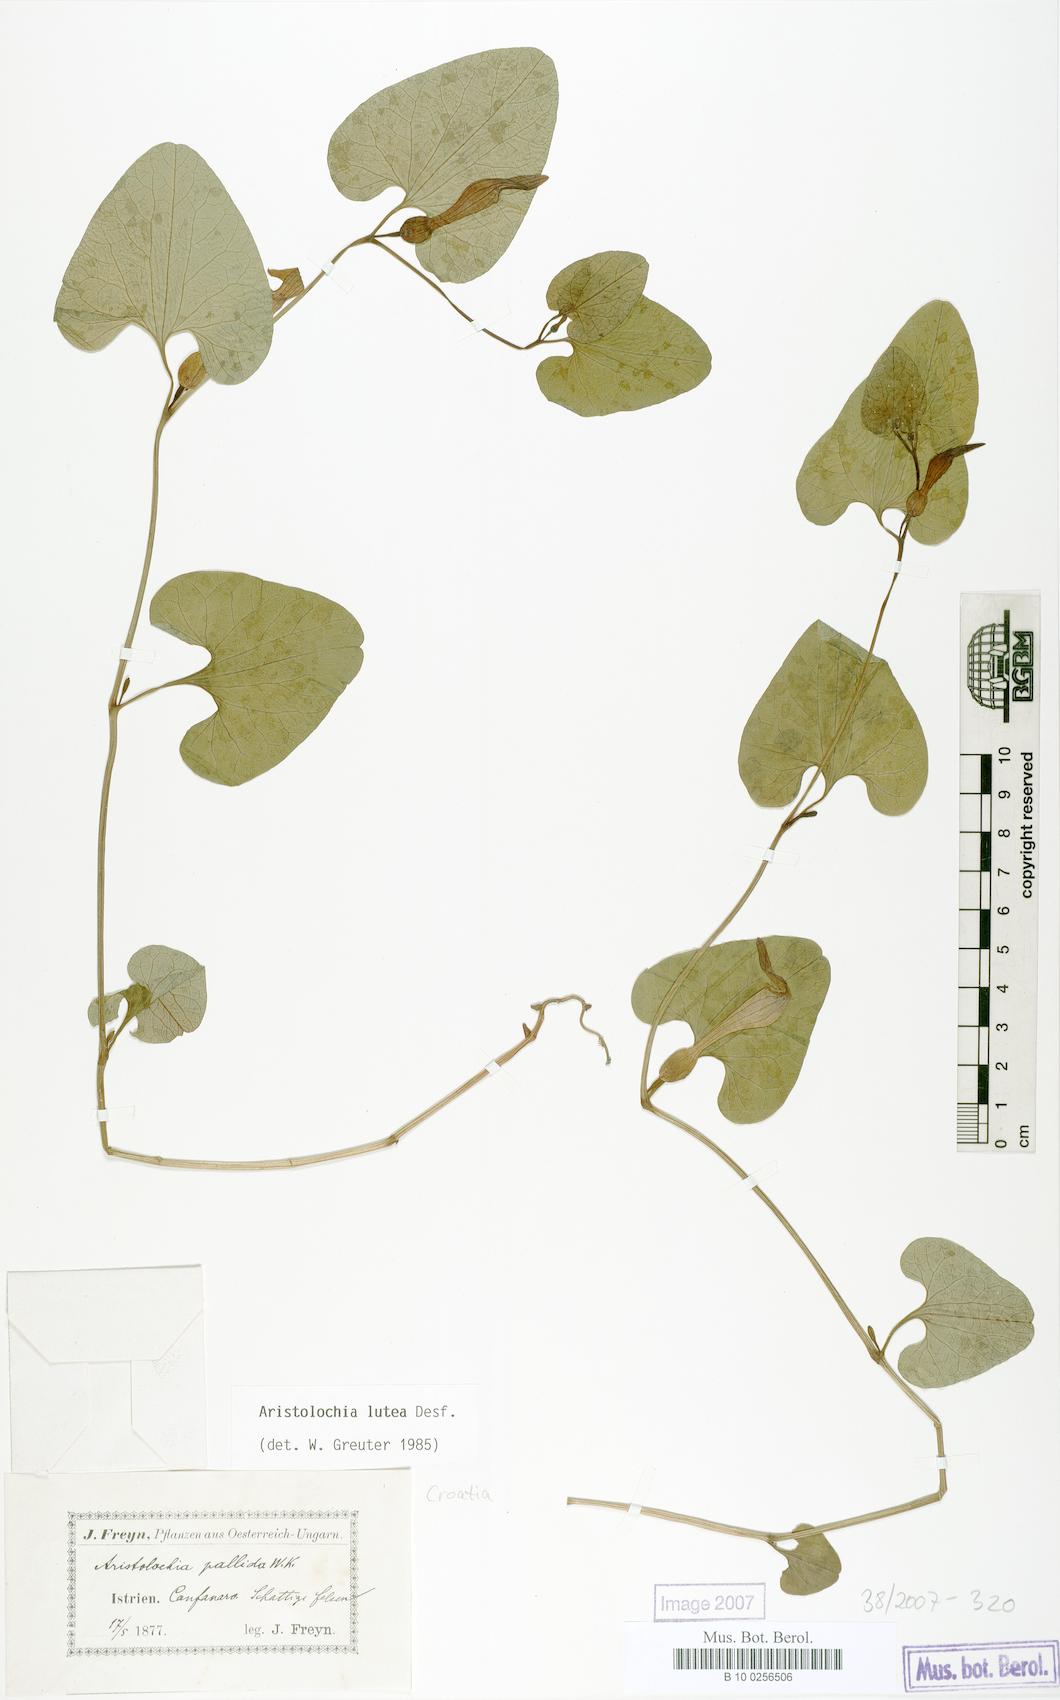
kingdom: Plantae
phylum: Tracheophyta
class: Magnoliopsida
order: Piperales
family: Aristolochiaceae
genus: Aristolochia
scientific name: Aristolochia lutea
